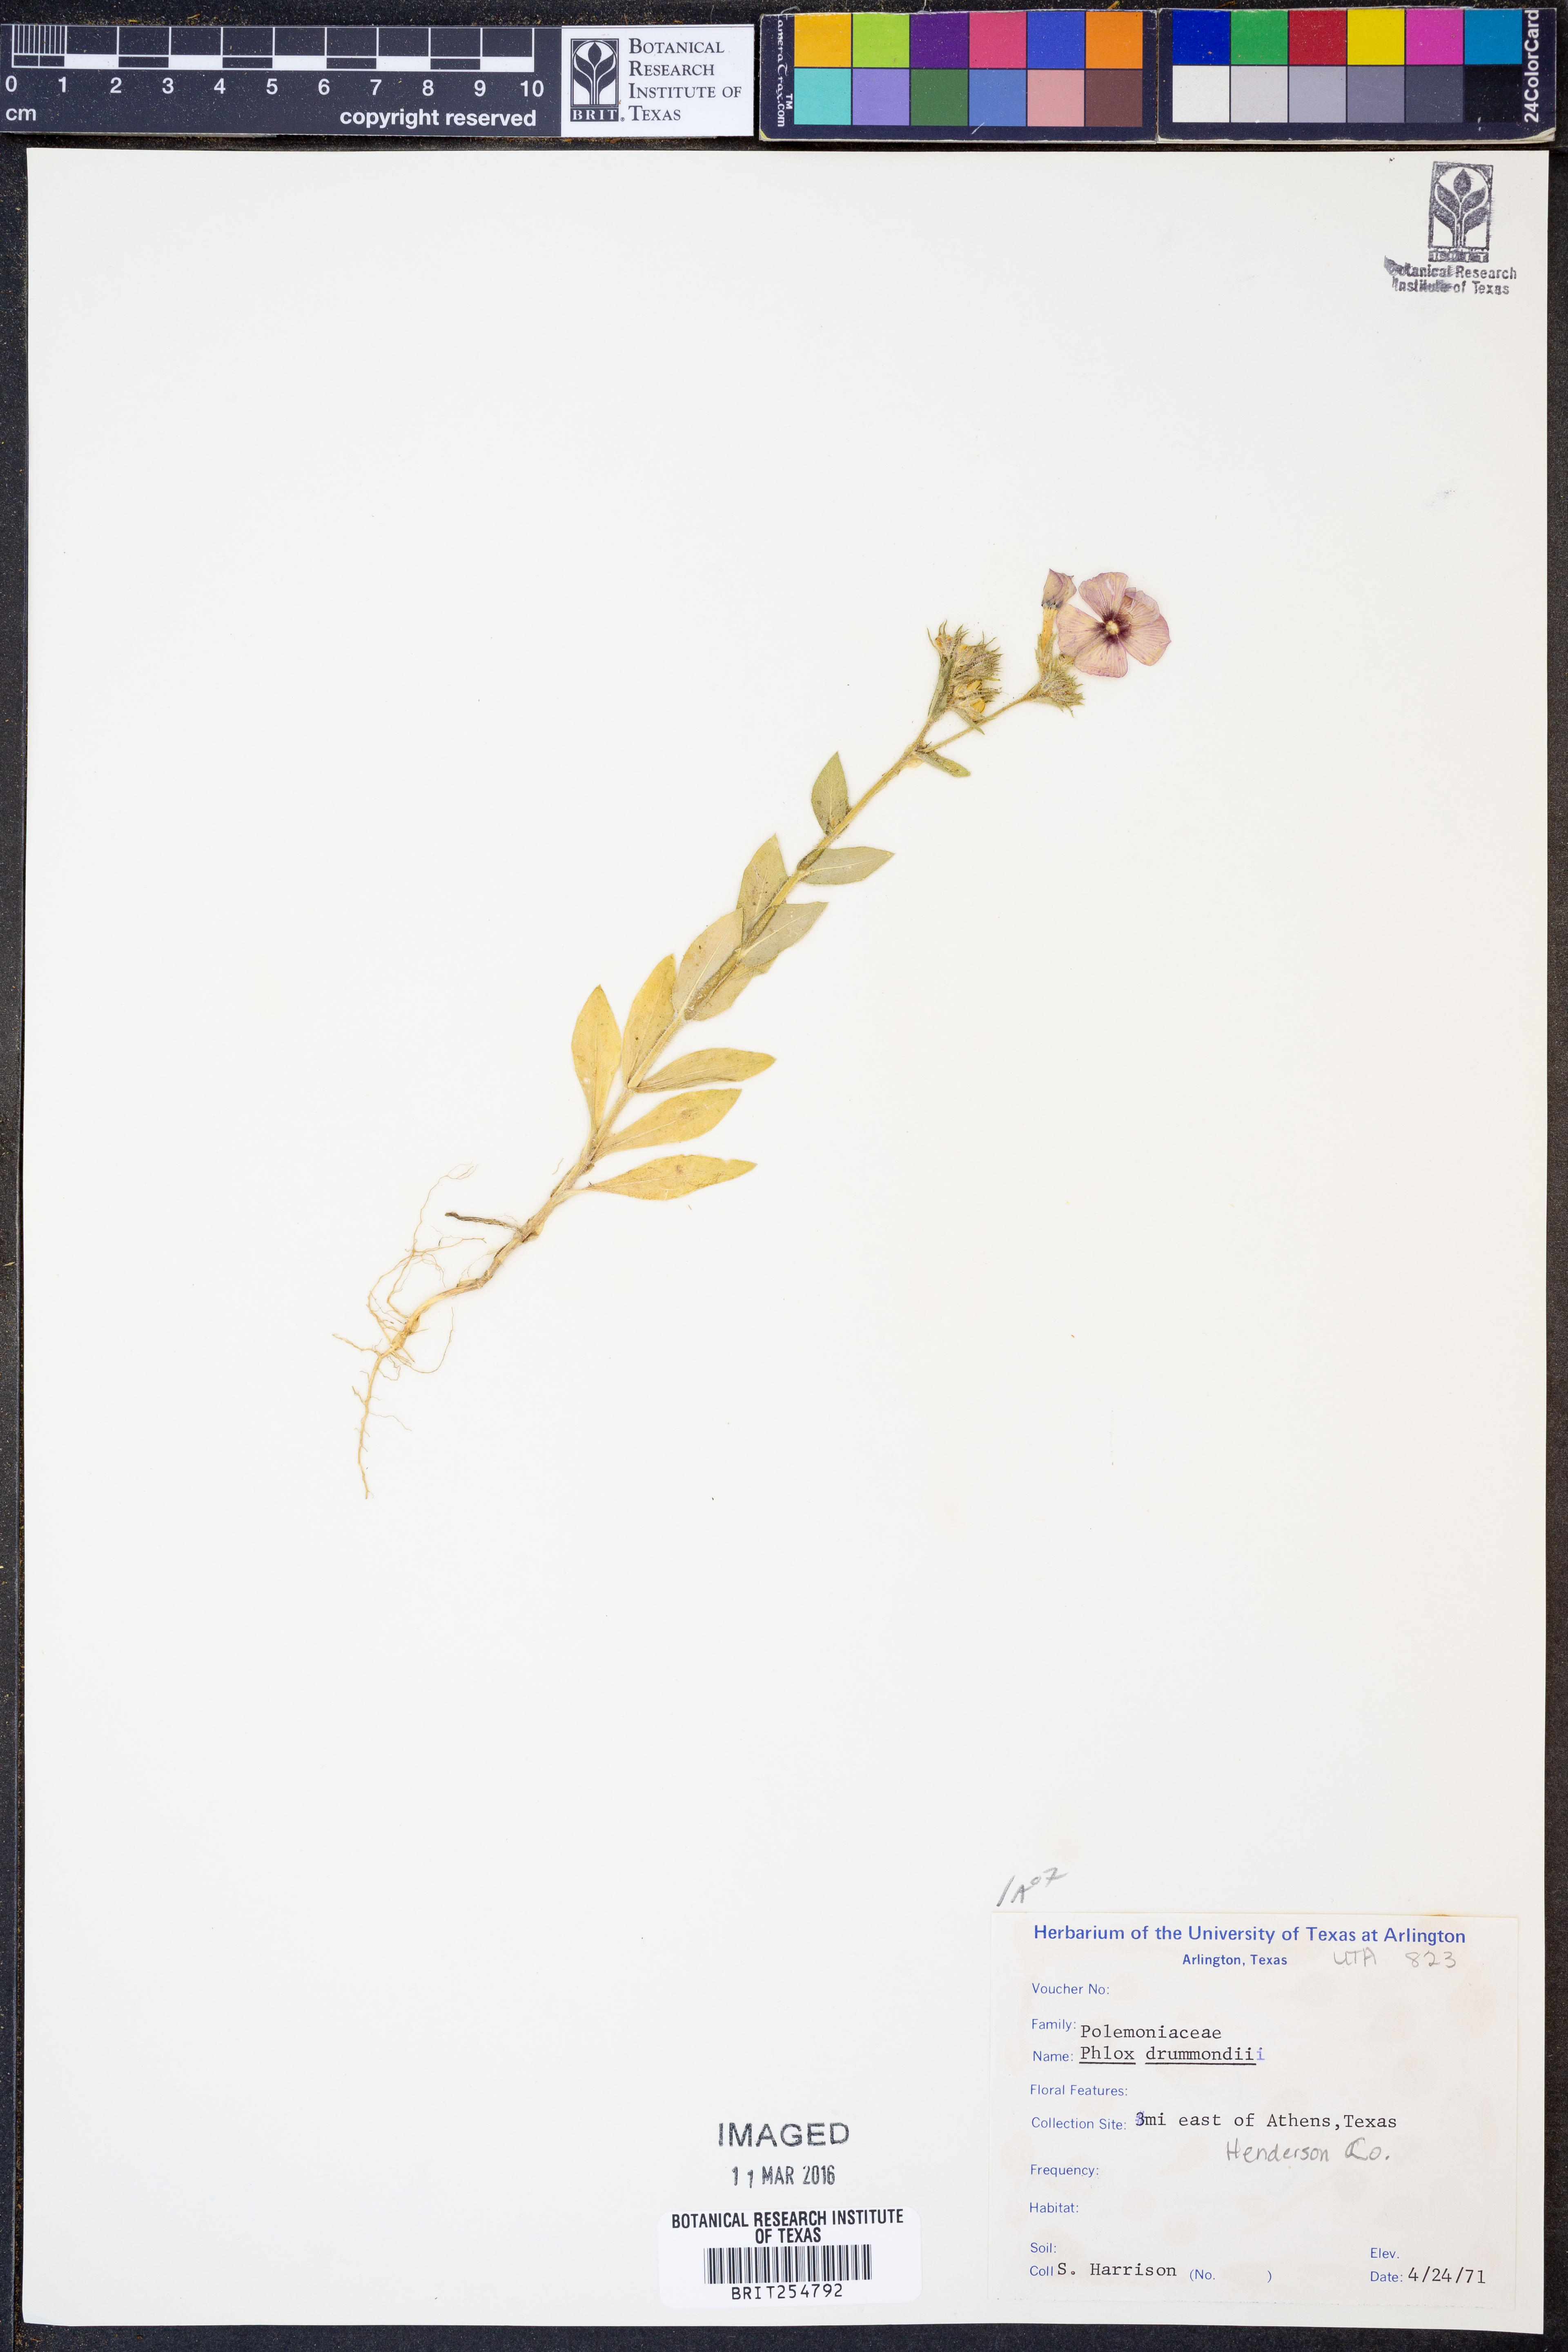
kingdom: Plantae
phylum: Tracheophyta
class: Magnoliopsida
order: Ericales
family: Polemoniaceae
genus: Phlox
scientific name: Phlox drummondii
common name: Drummond's phlox
